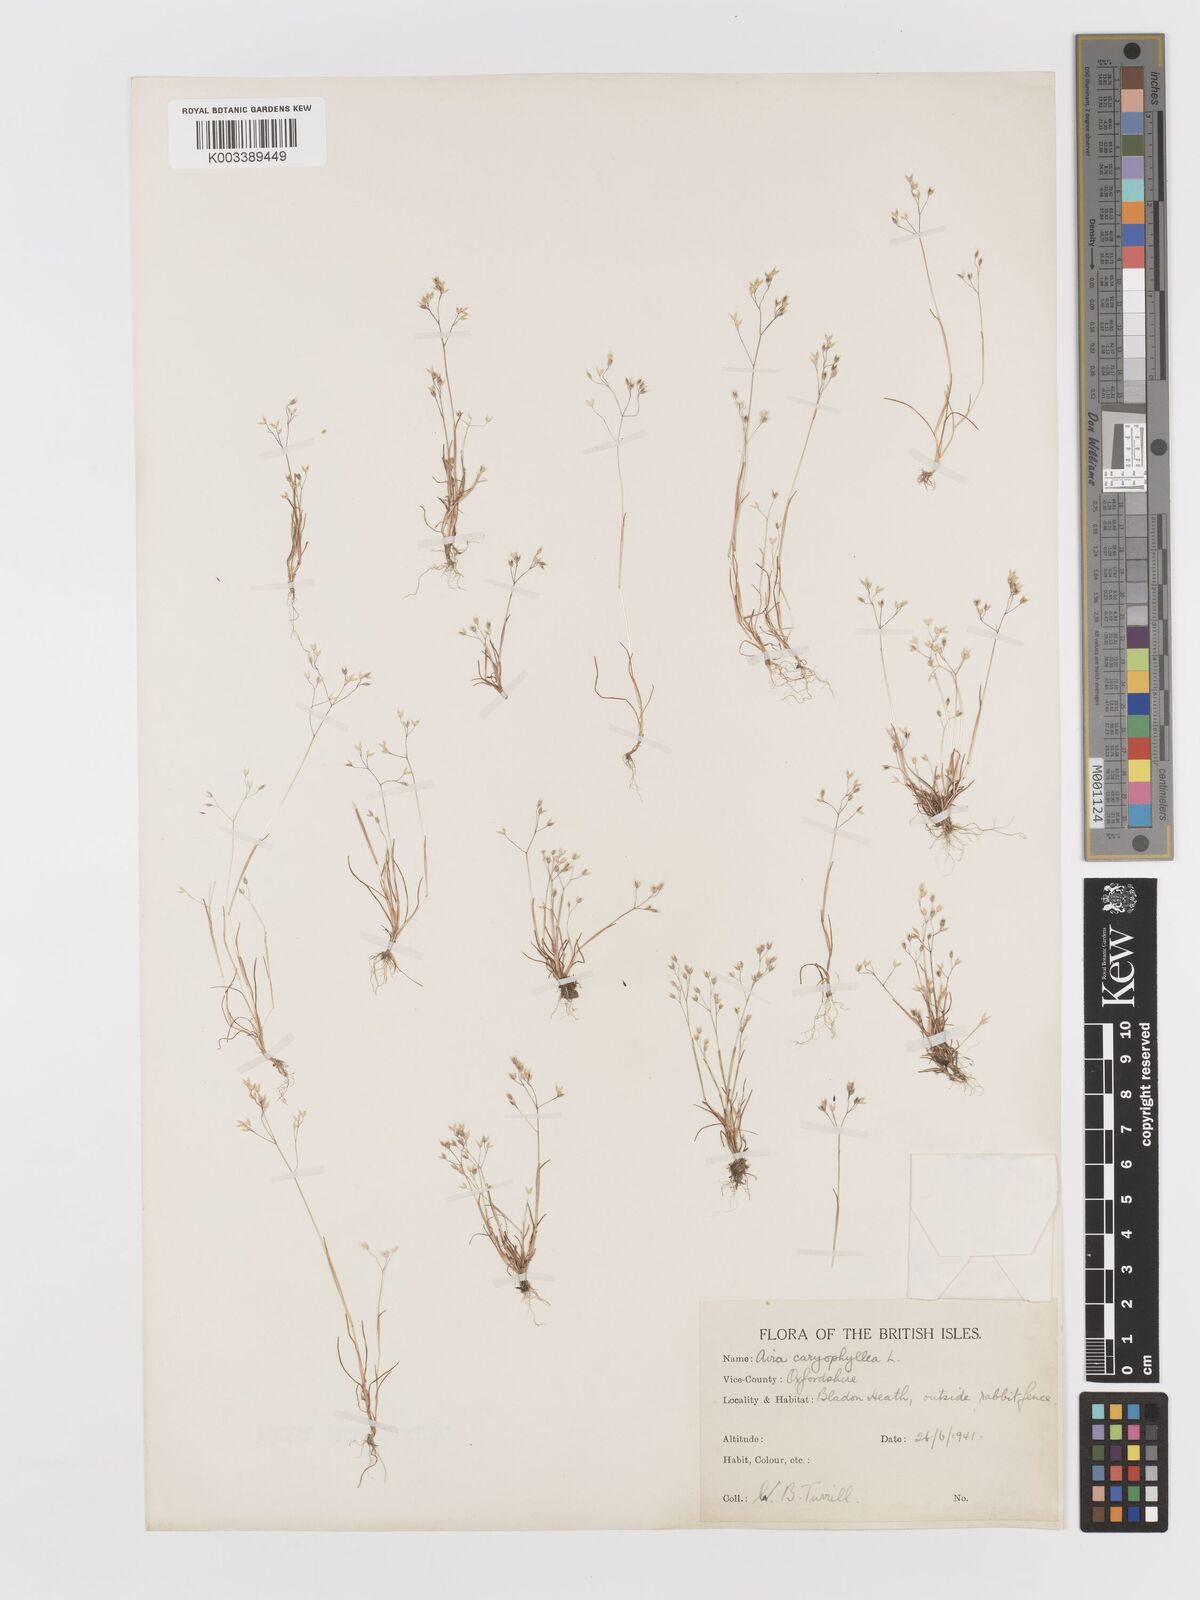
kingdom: Plantae
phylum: Tracheophyta
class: Liliopsida
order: Poales
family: Poaceae
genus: Aira
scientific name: Aira caryophyllea
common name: Silver hairgrass
